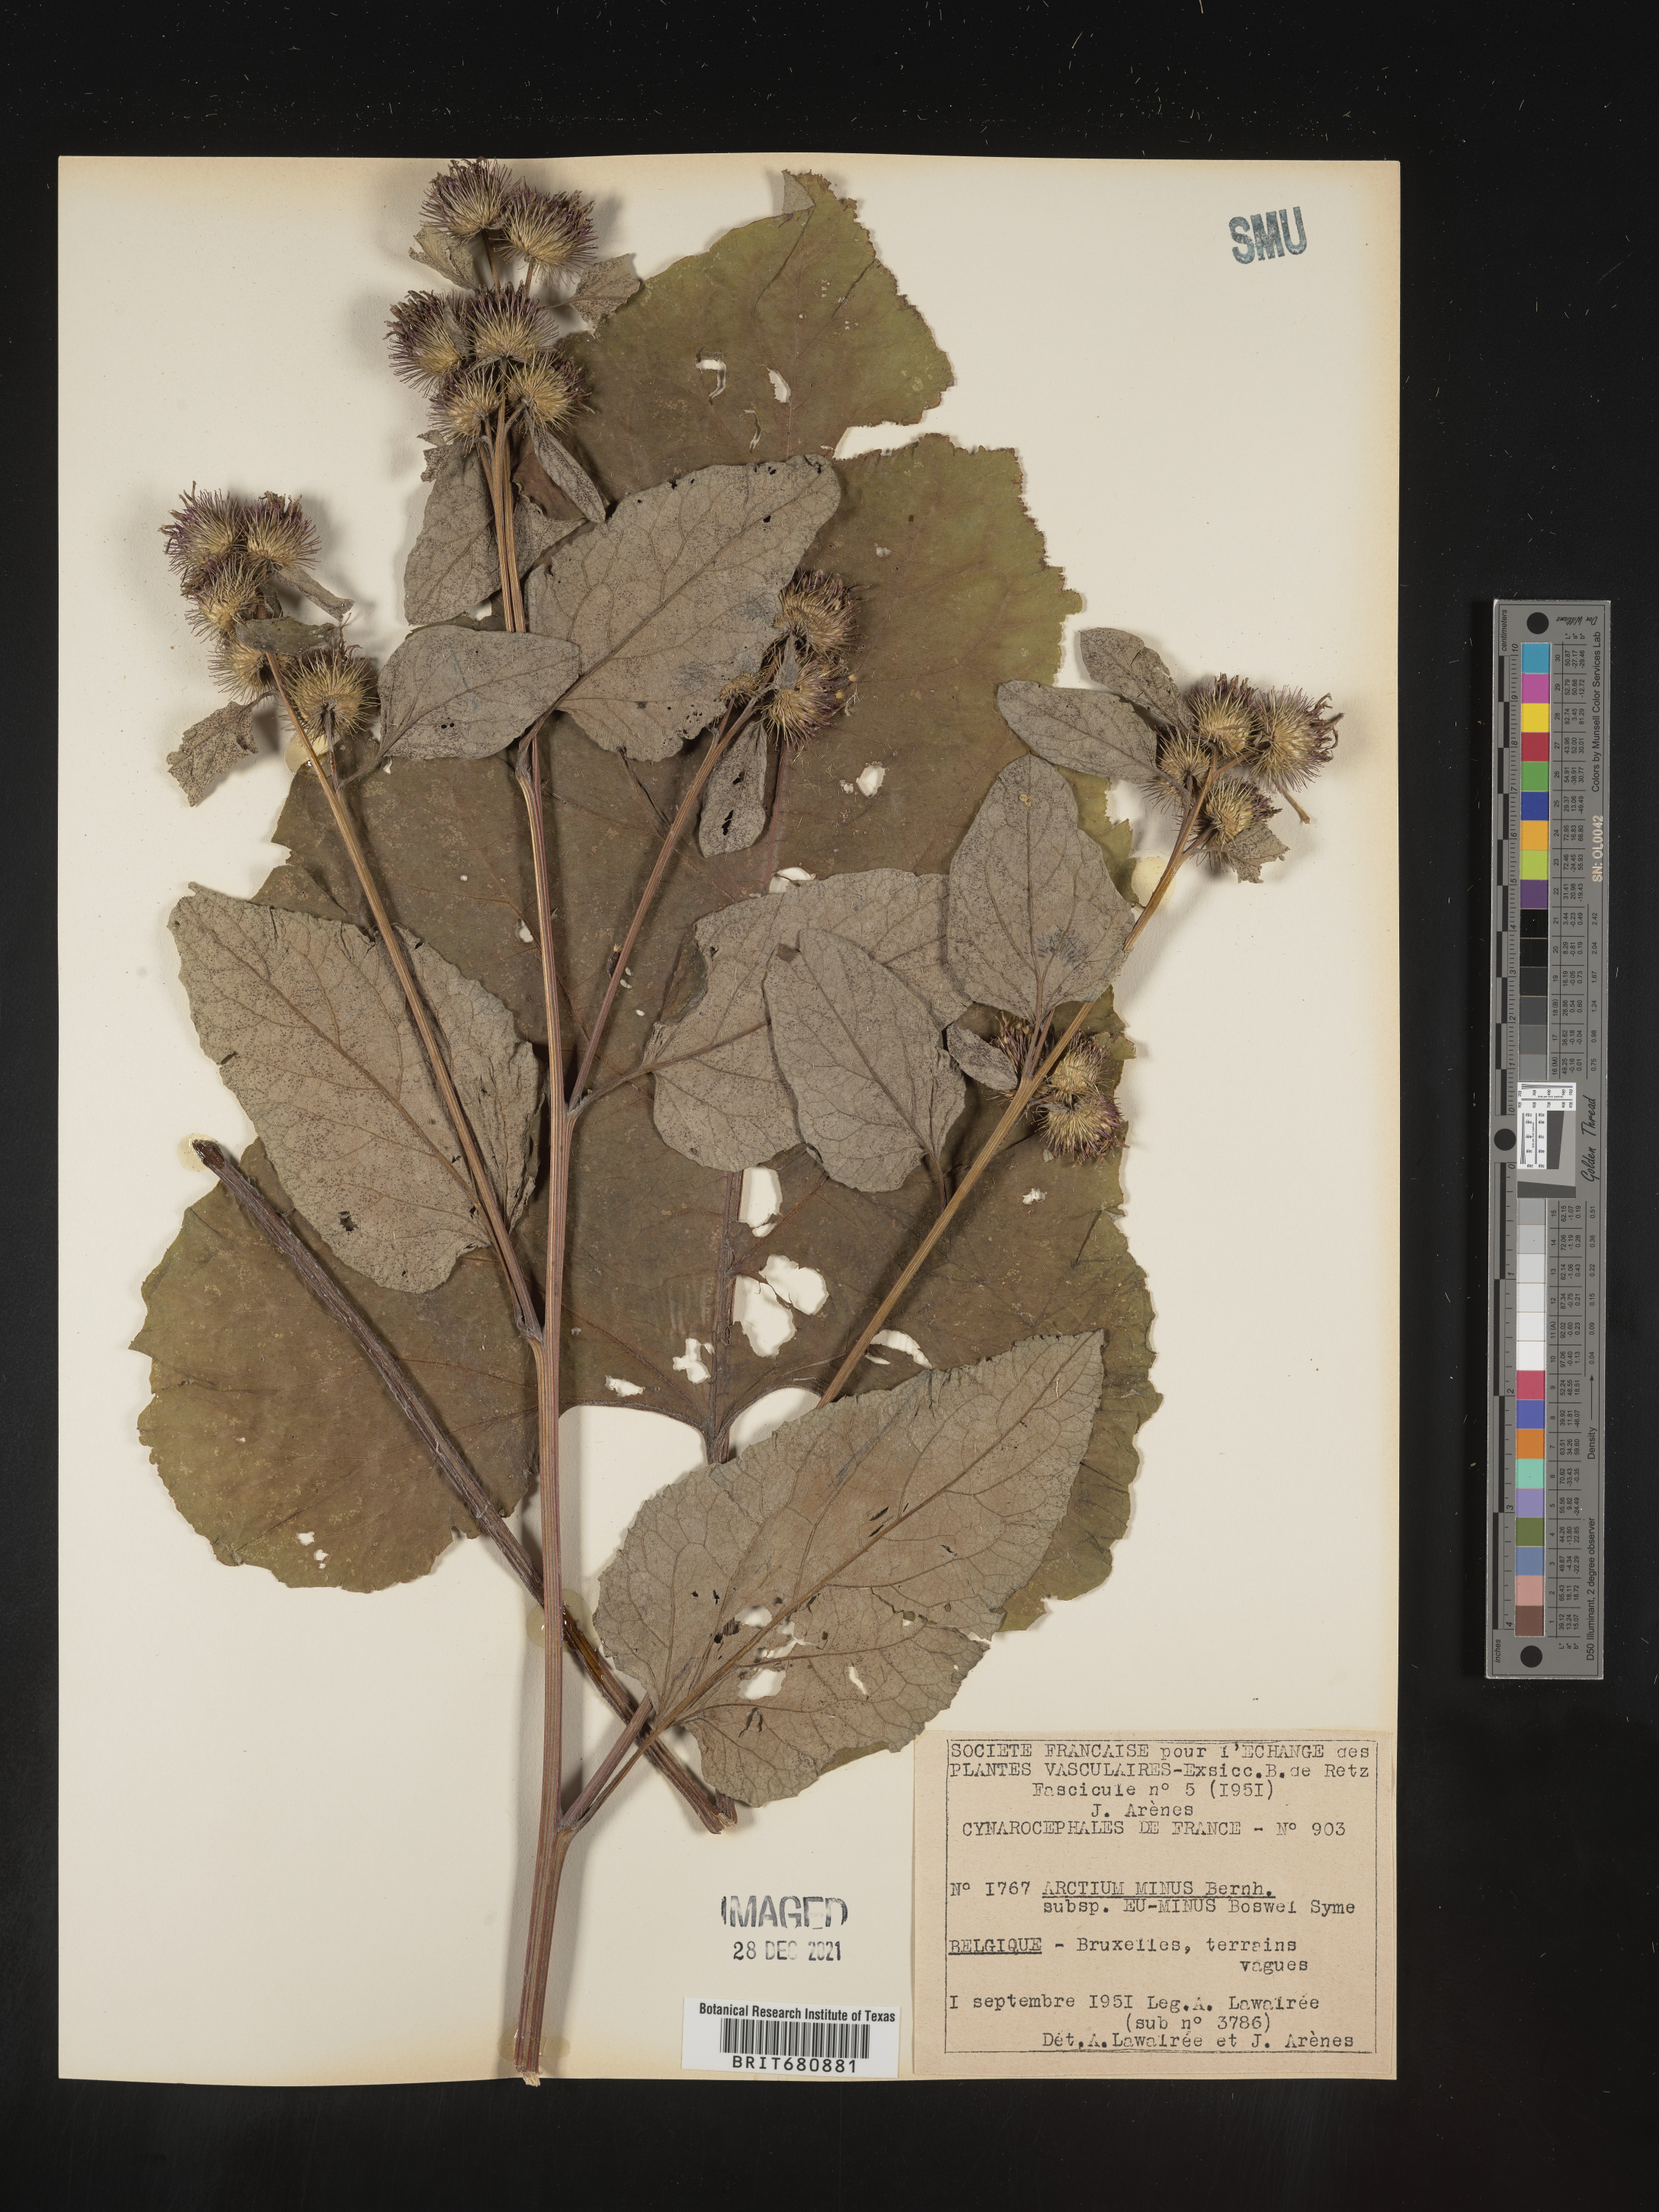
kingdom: Plantae
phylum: Tracheophyta
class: Magnoliopsida
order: Asterales
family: Asteraceae
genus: Arctium
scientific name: Arctium
